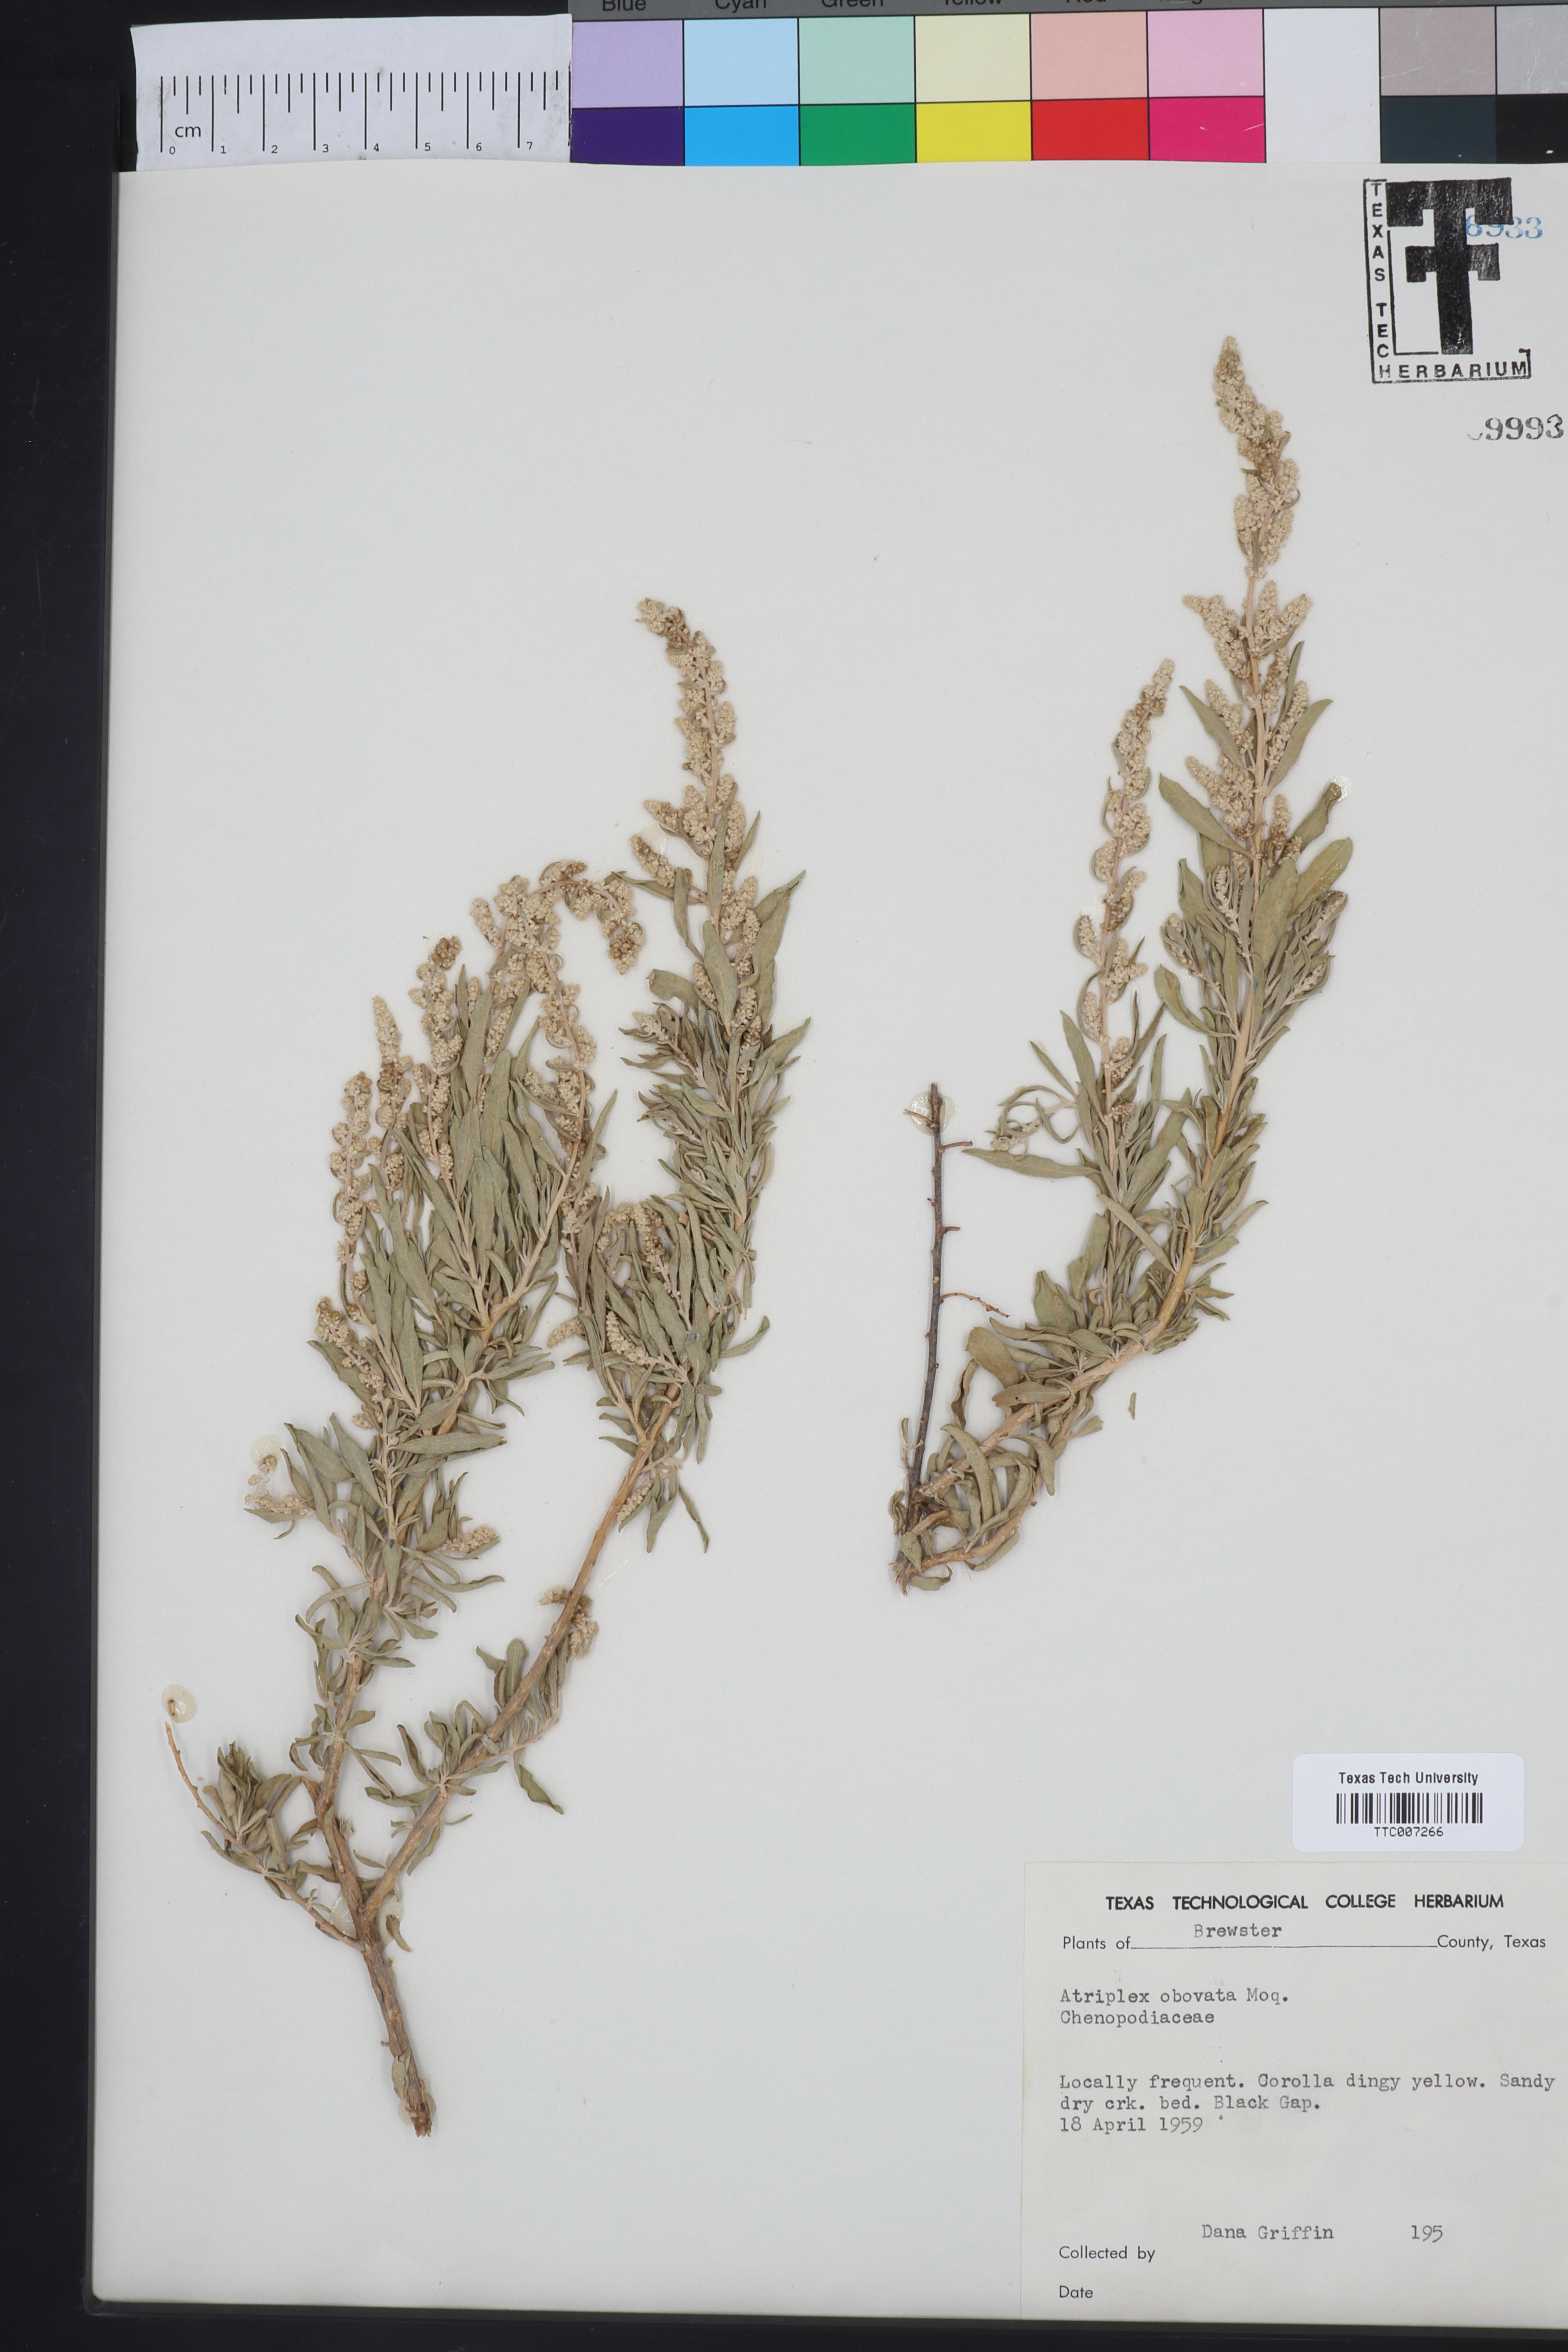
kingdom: Plantae
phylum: Tracheophyta
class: Magnoliopsida
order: Caryophyllales
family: Amaranthaceae
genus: Atriplex
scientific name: Atriplex obovata
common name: New mexico saltbush
